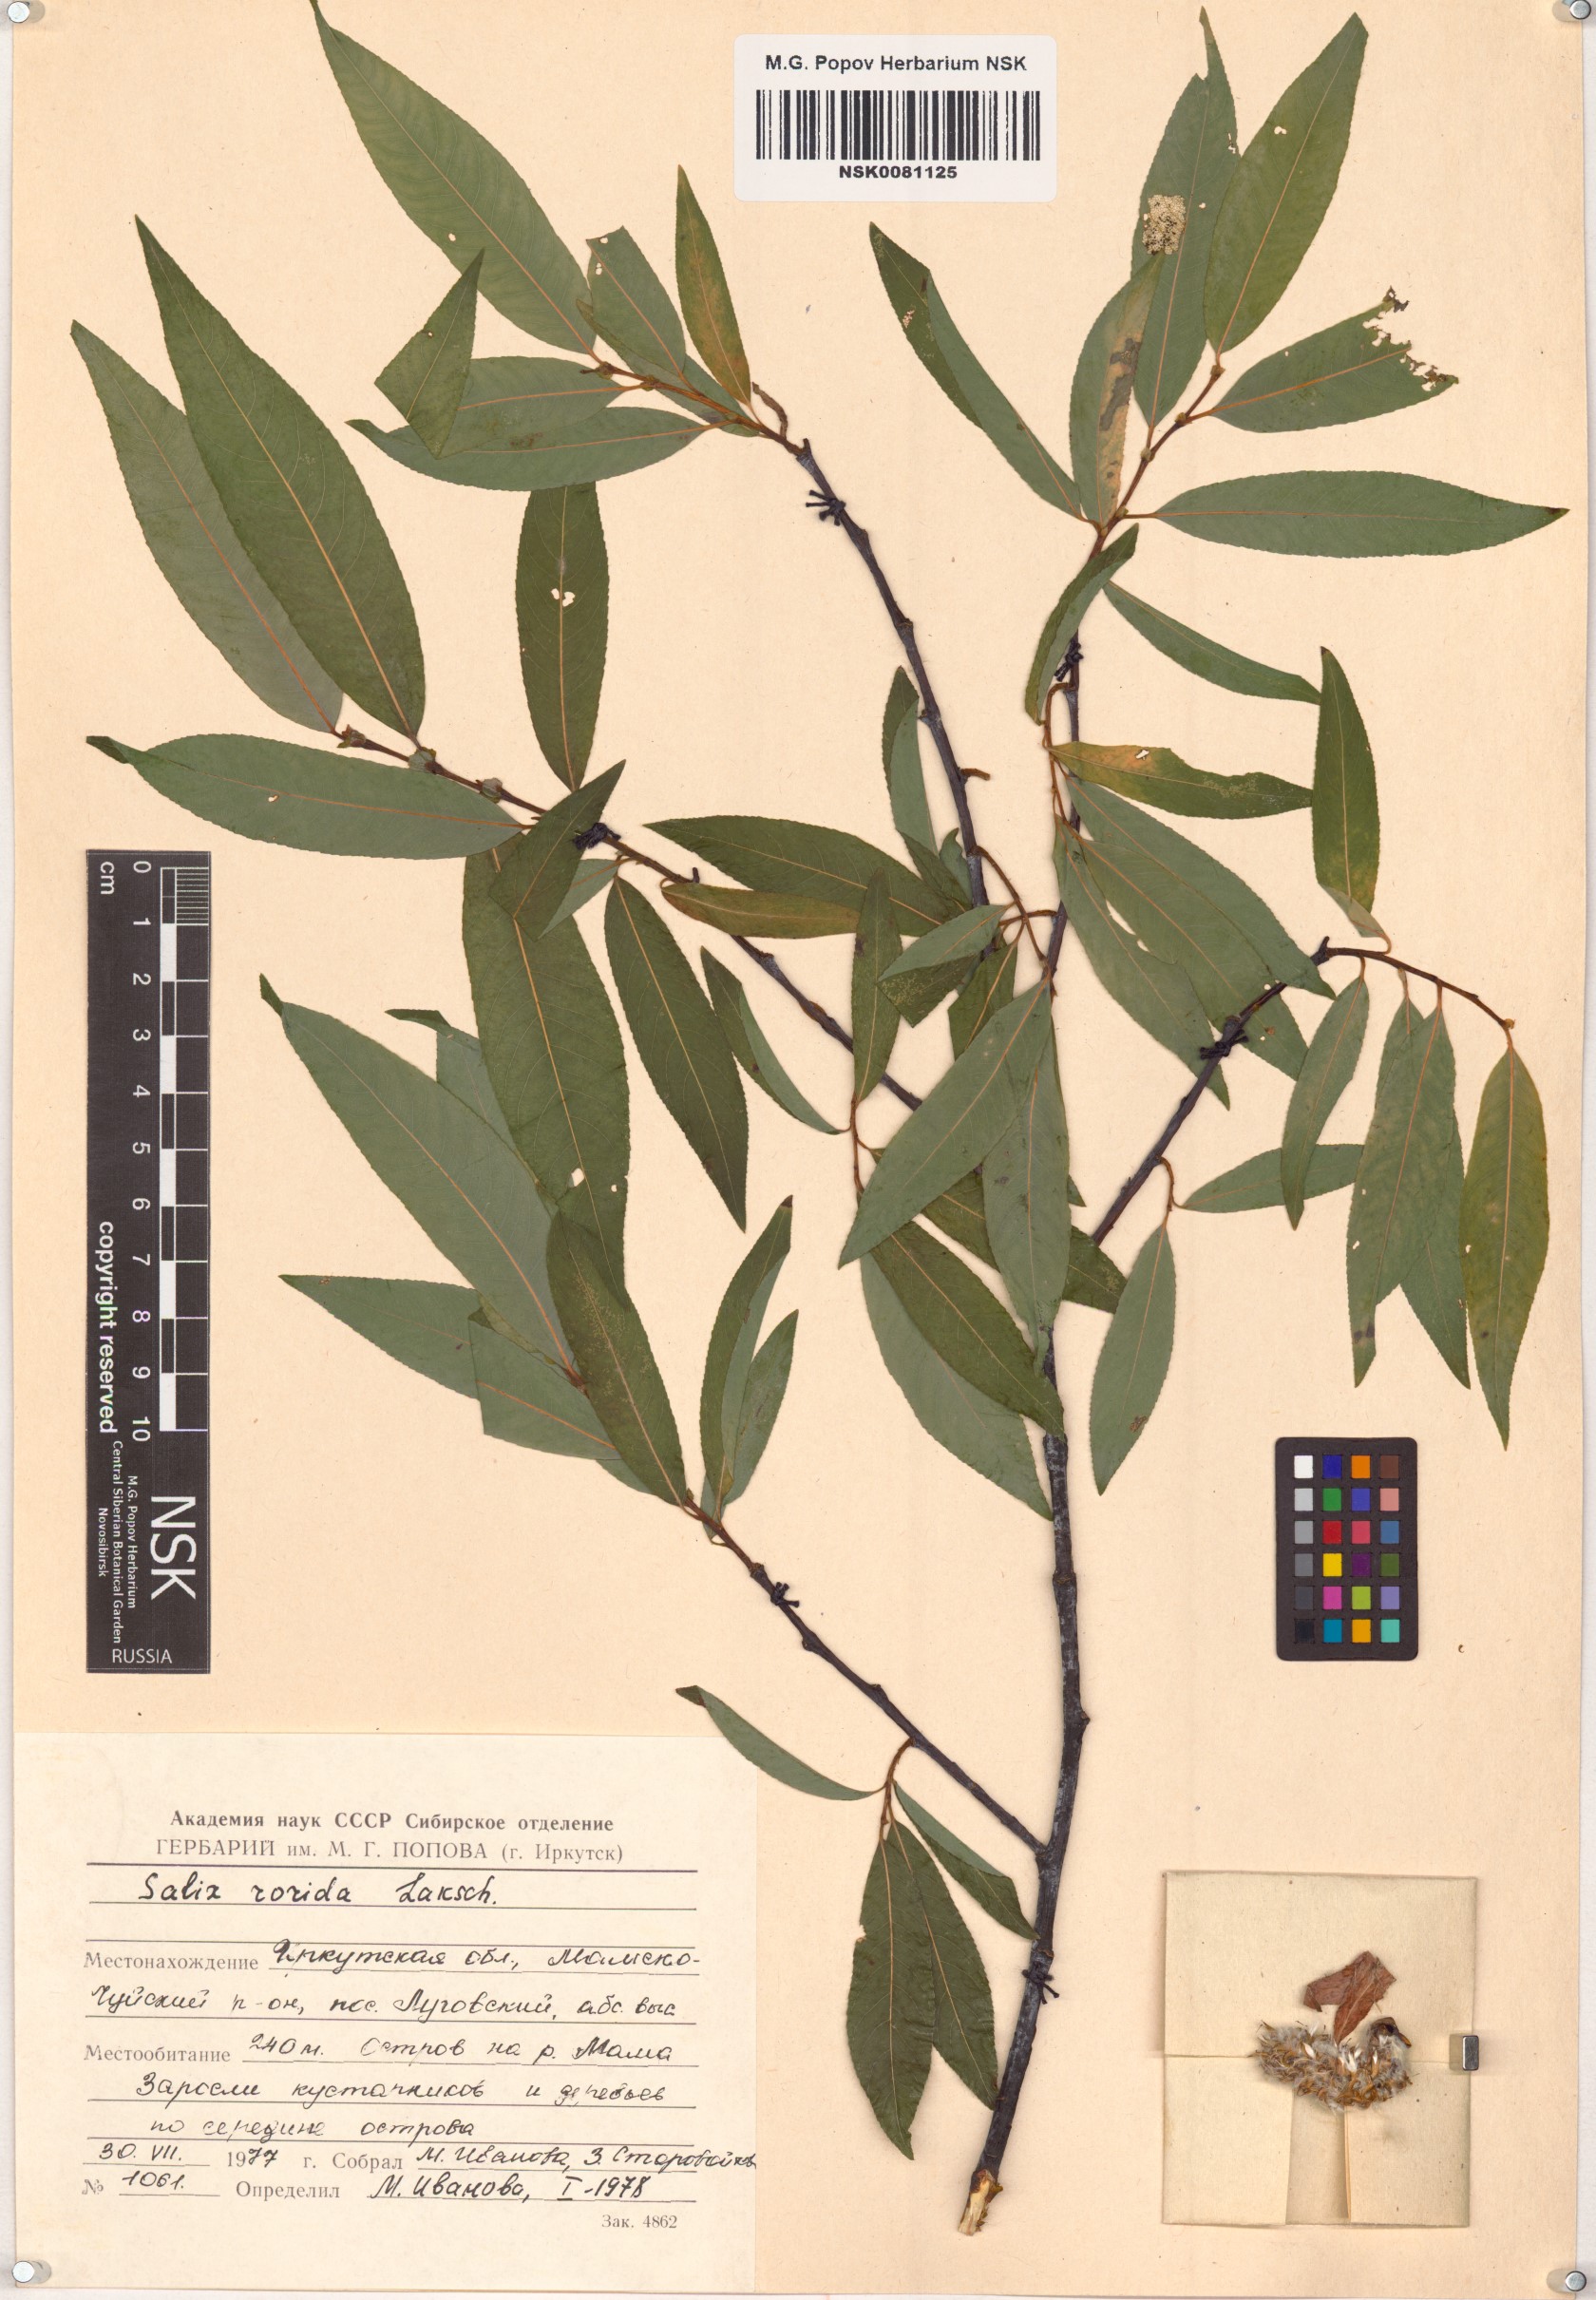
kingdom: Plantae
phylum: Tracheophyta
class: Magnoliopsida
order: Malpighiales
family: Salicaceae
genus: Salix
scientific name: Salix rorida
